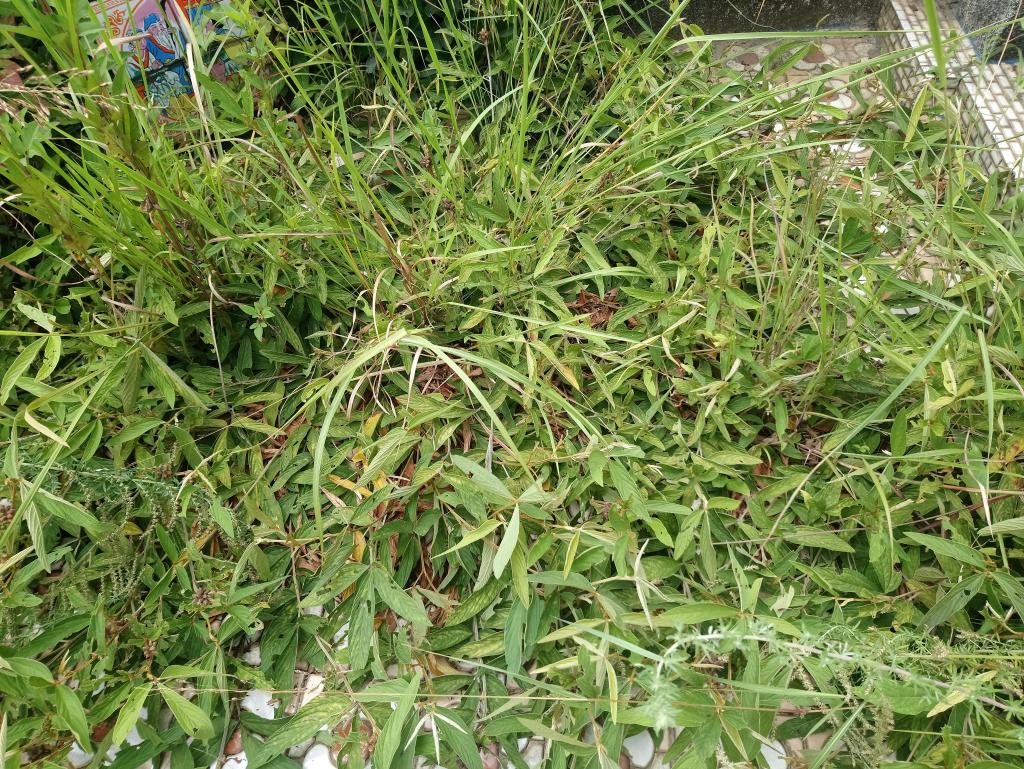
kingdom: Plantae
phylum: Tracheophyta
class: Magnoliopsida
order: Fabales
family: Fabaceae
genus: Flemingia
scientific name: Flemingia macrophylla
